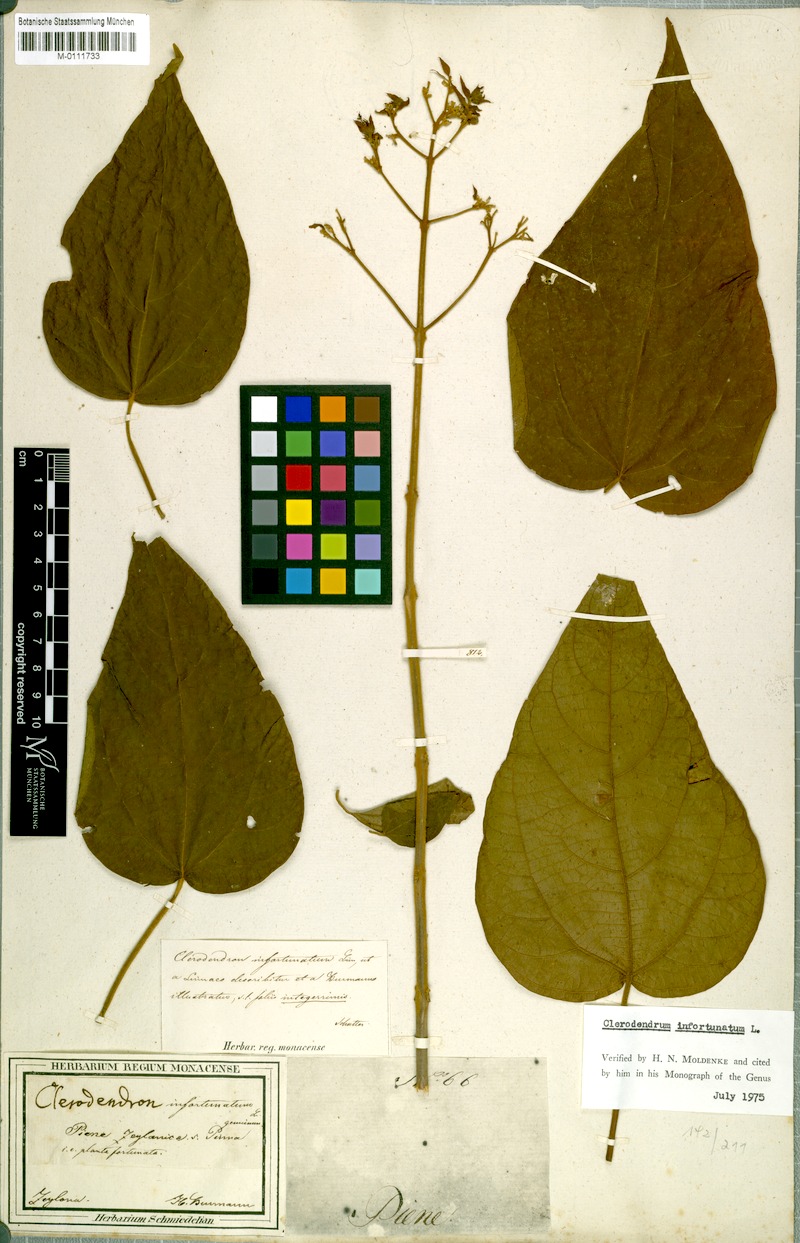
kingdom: Plantae
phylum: Tracheophyta
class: Magnoliopsida
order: Lamiales
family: Lamiaceae
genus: Clerodendrum
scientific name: Clerodendrum infortunatum
